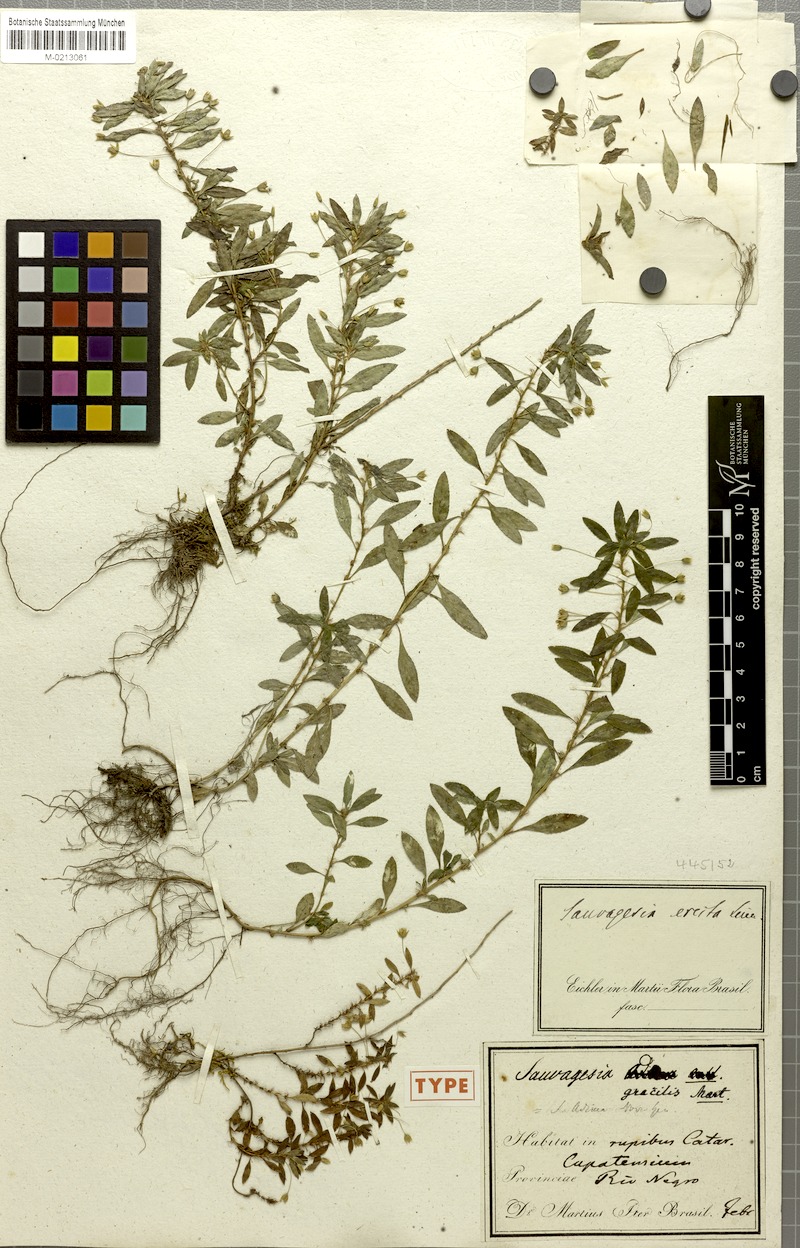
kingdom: Plantae
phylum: Tracheophyta
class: Magnoliopsida
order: Malpighiales
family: Ochnaceae
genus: Sauvagesia
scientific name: Sauvagesia erecta
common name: Creole tea
